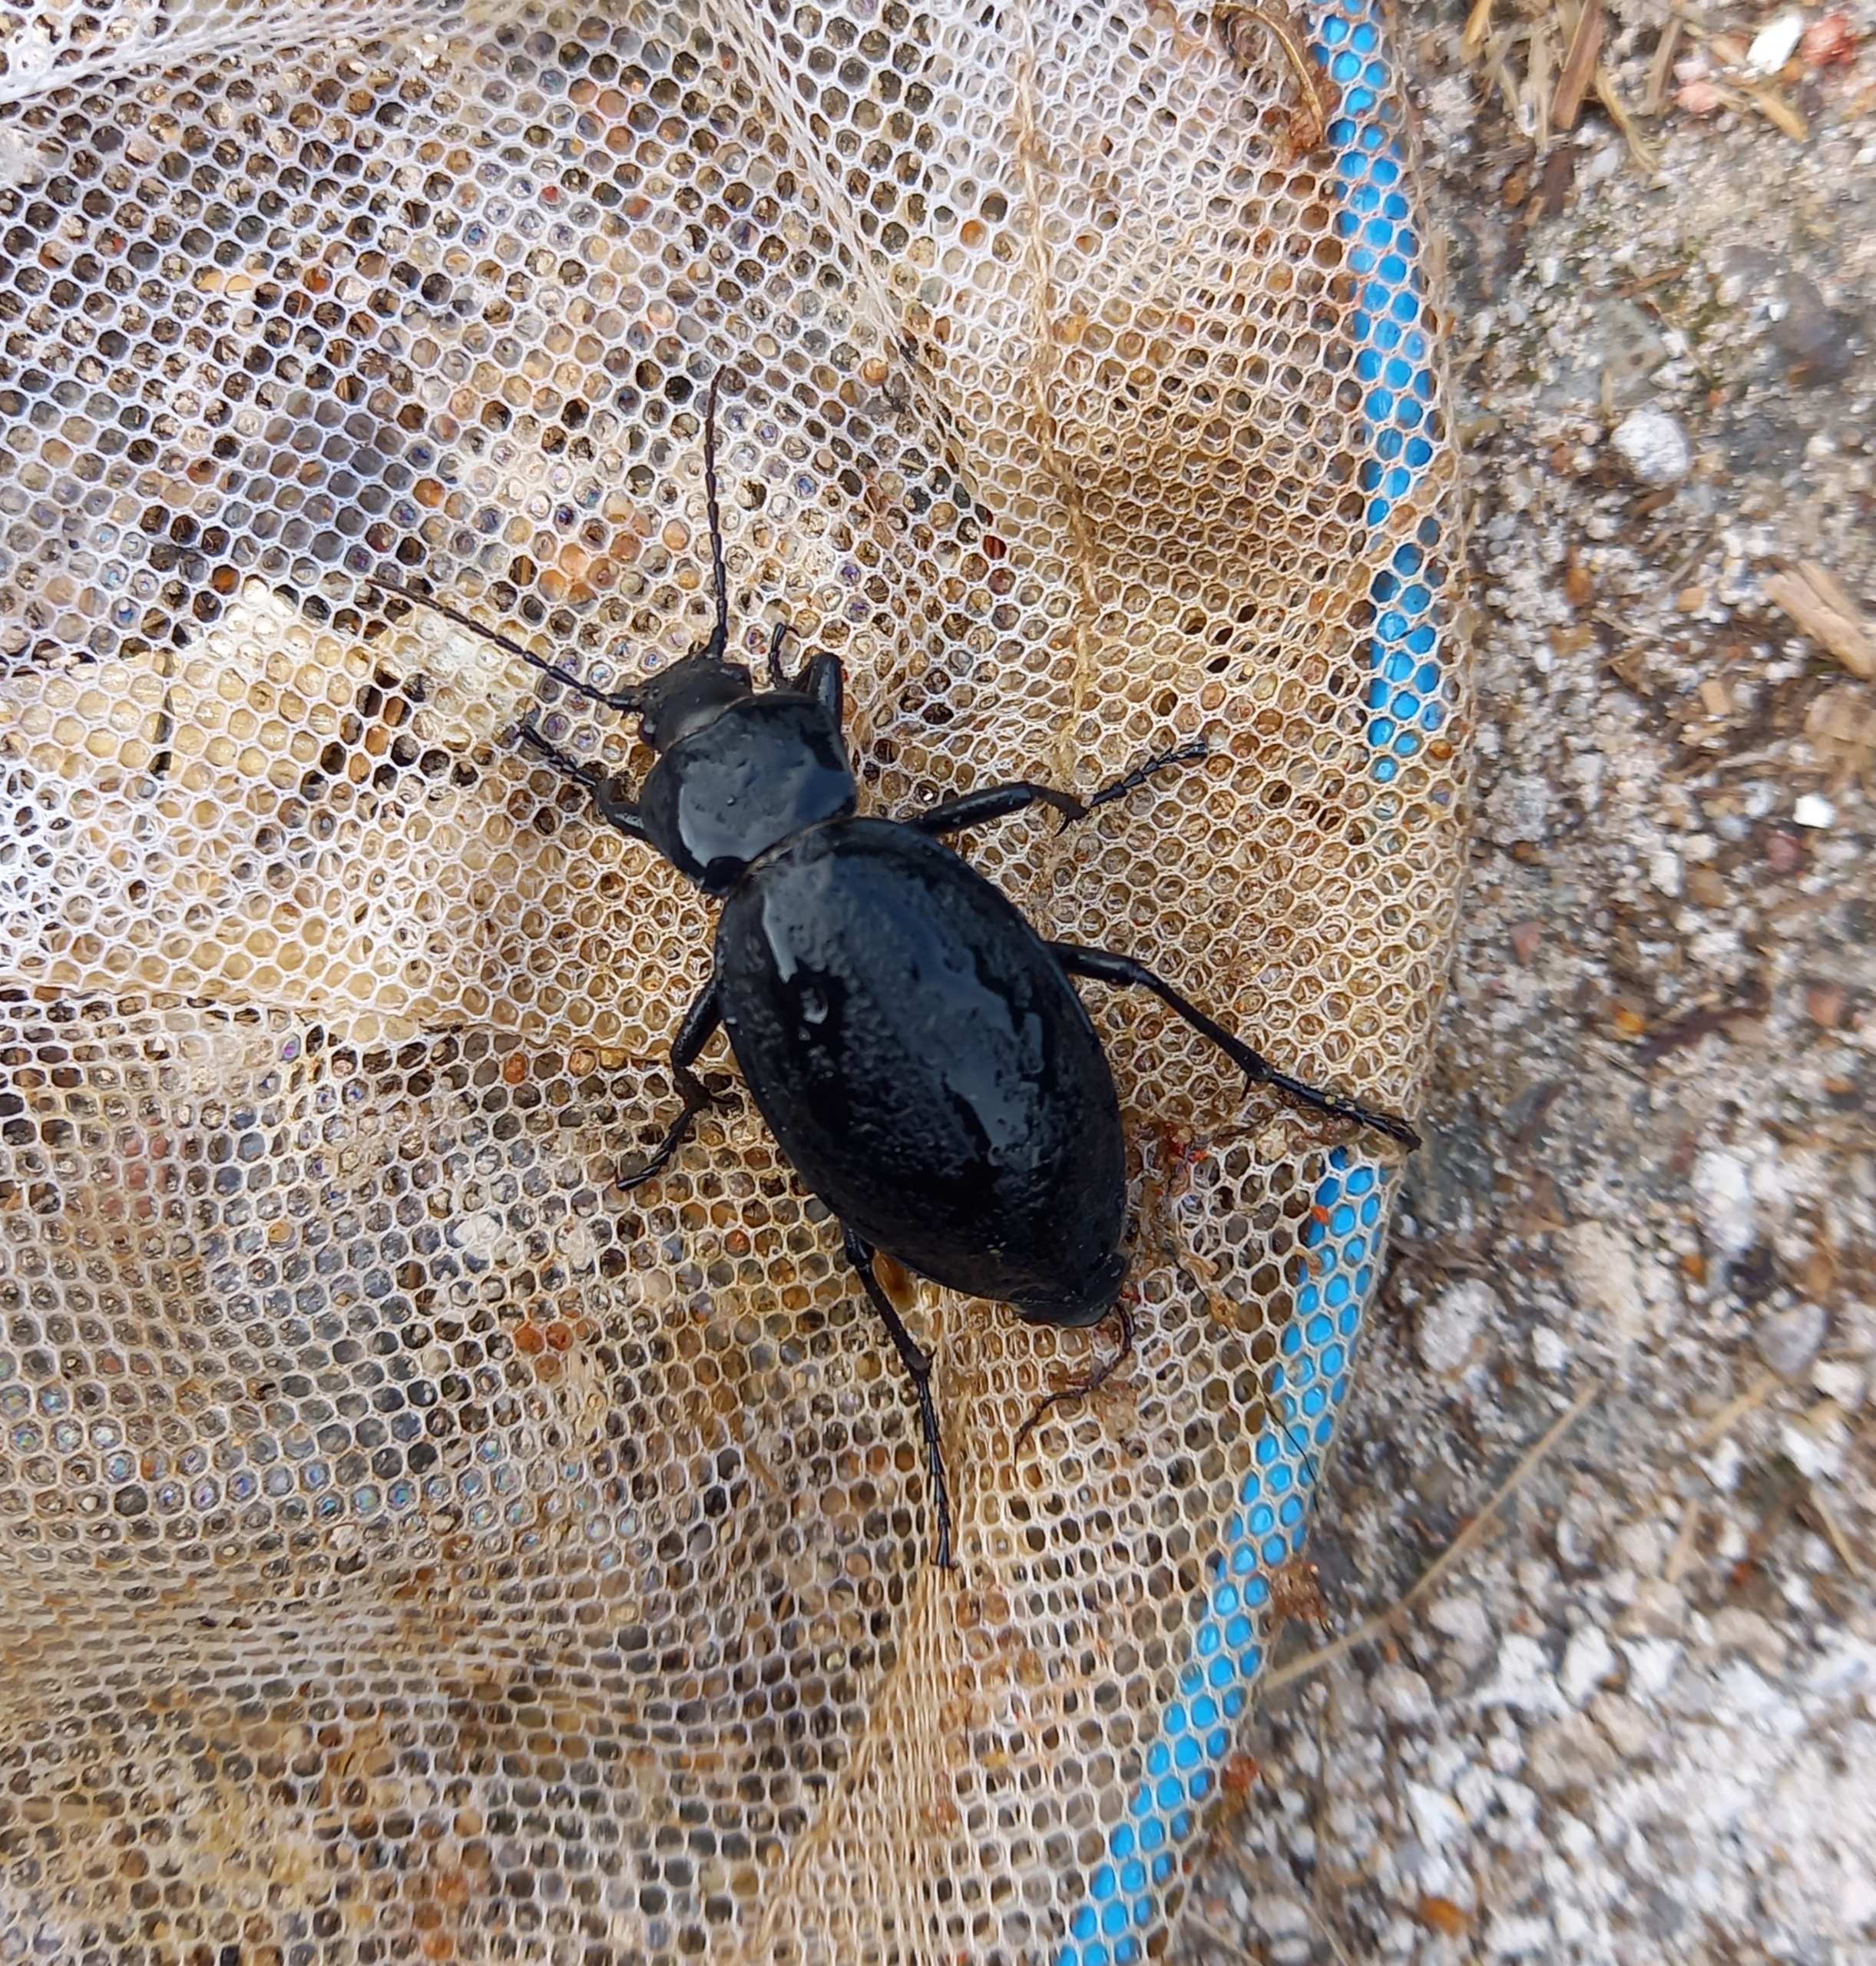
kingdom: Animalia
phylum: Arthropoda
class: Insecta
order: Coleoptera
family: Carabidae
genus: Carabus
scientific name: Carabus coriaceus
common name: Læderløber
